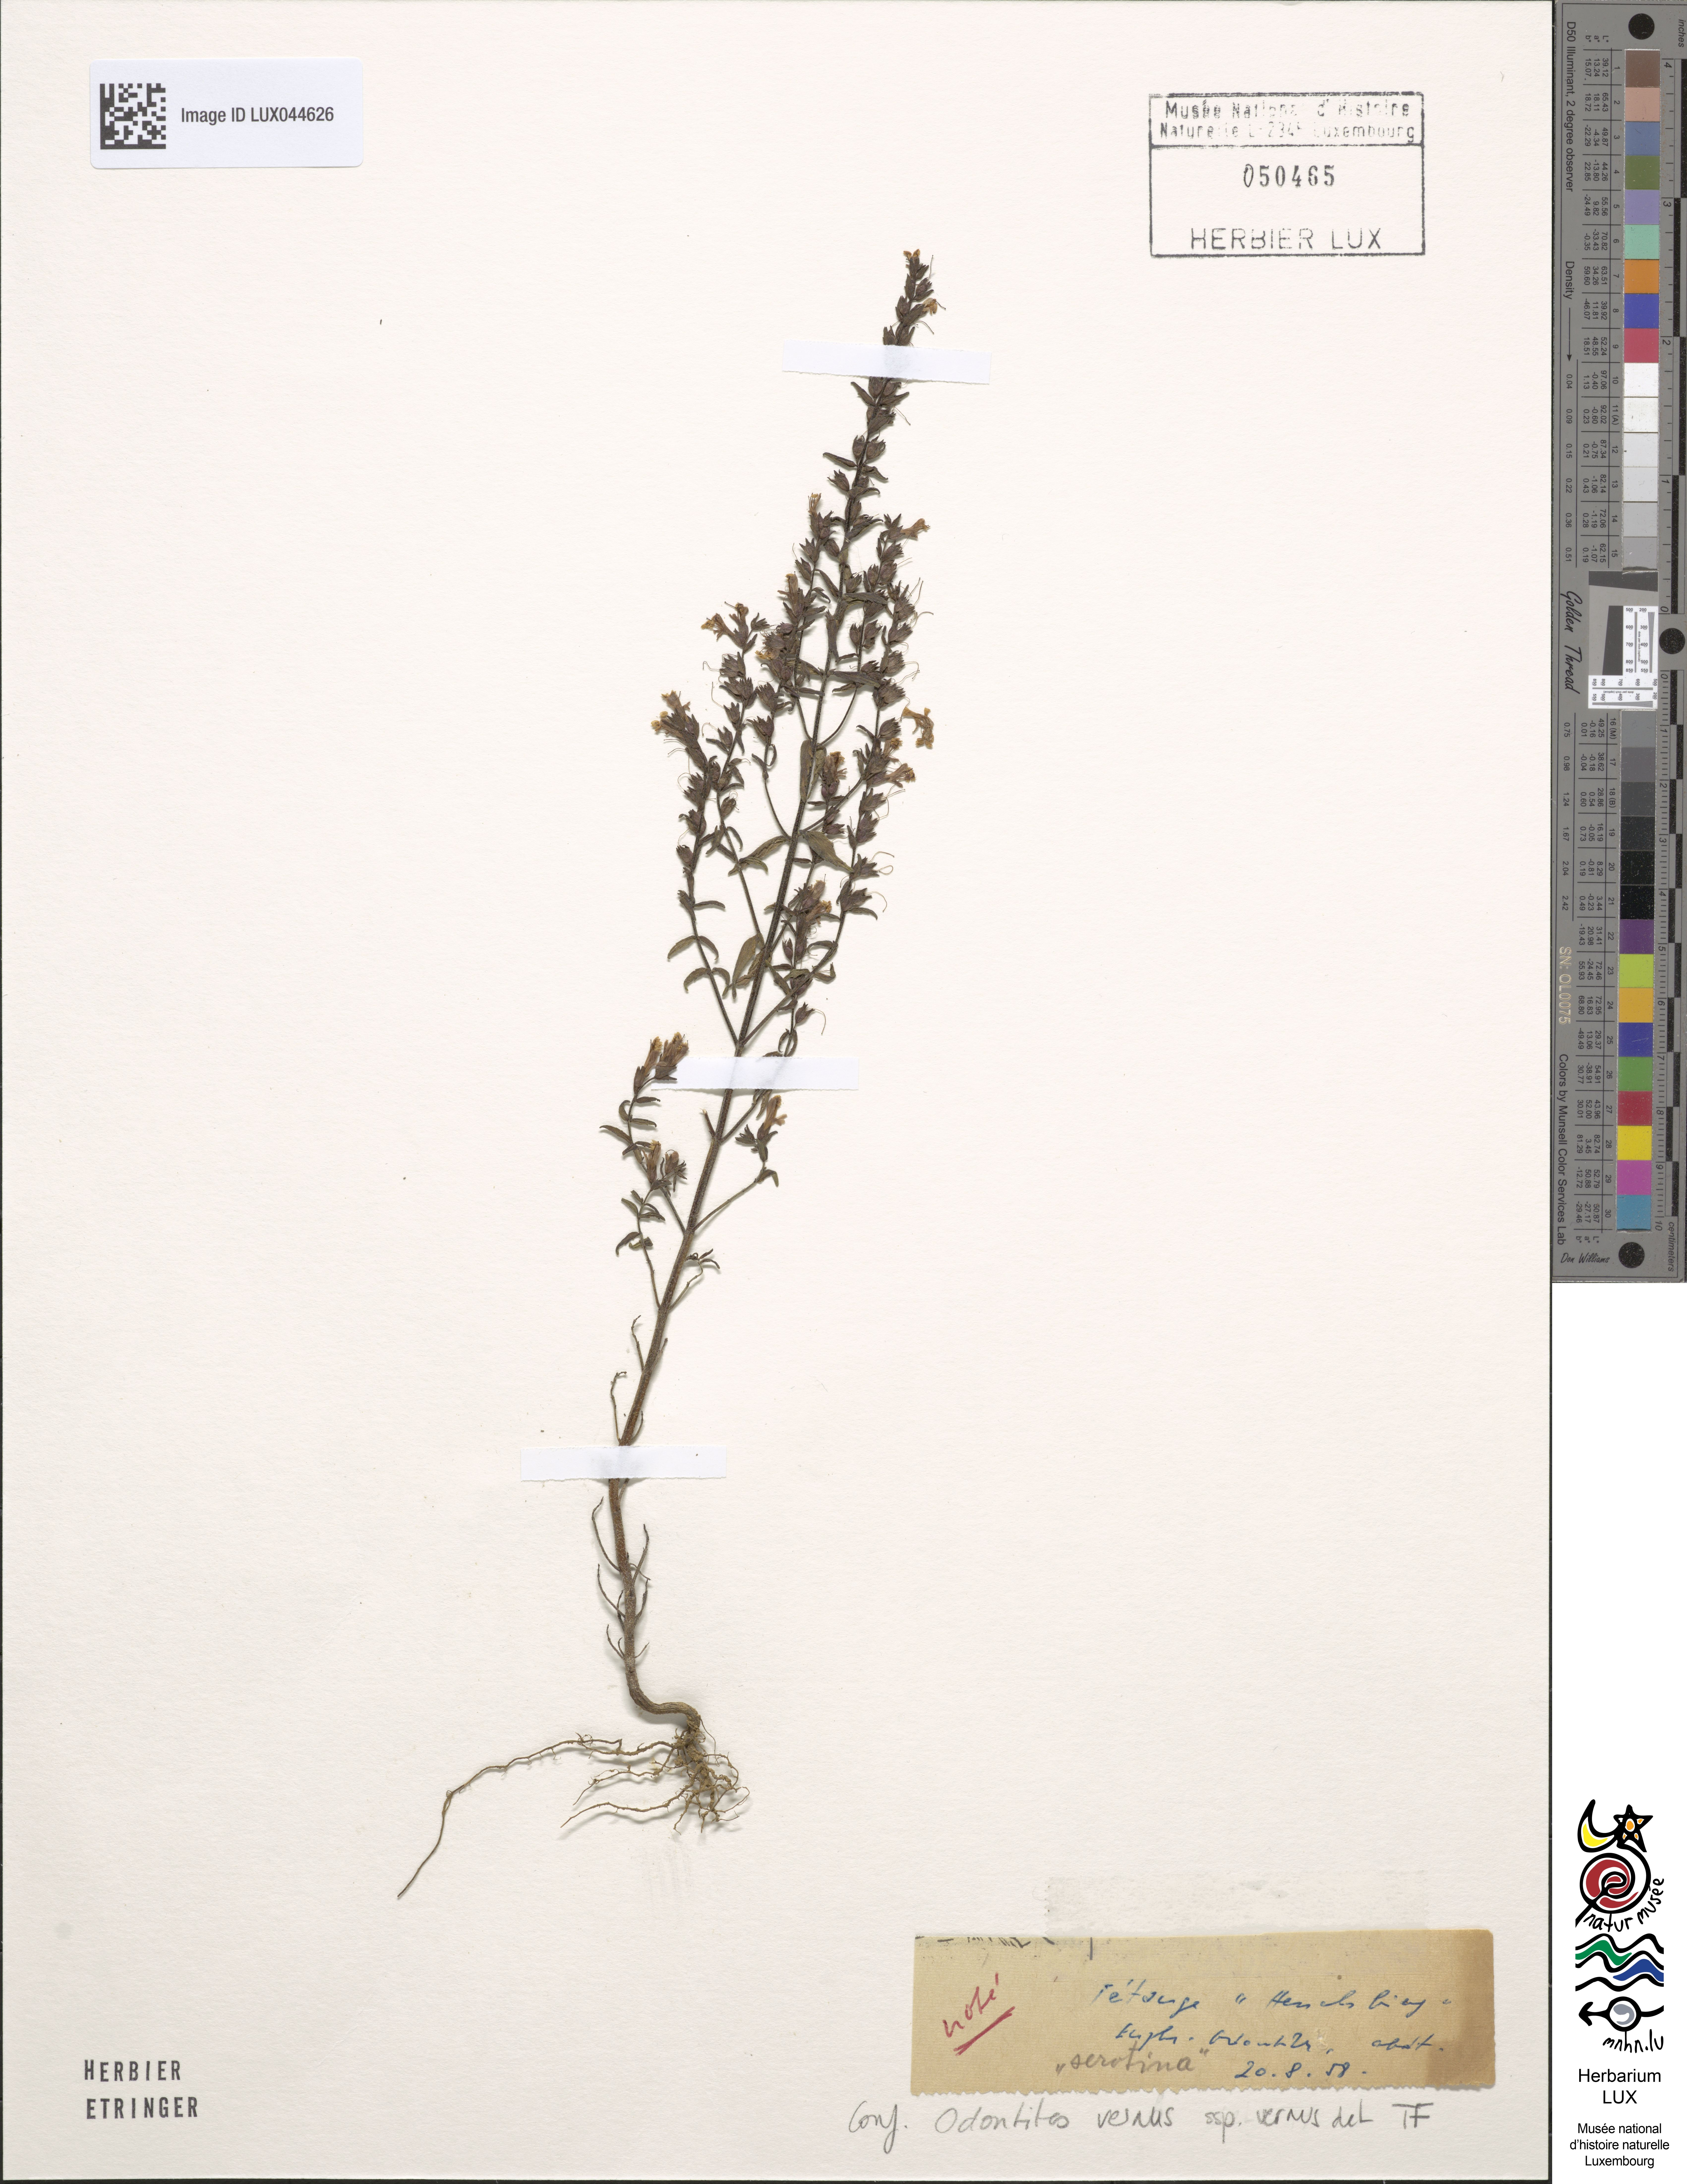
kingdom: Plantae
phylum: Tracheophyta
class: Magnoliopsida
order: Lamiales
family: Orobanchaceae
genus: Odontites
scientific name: Odontites vernus
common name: Red bartsia
